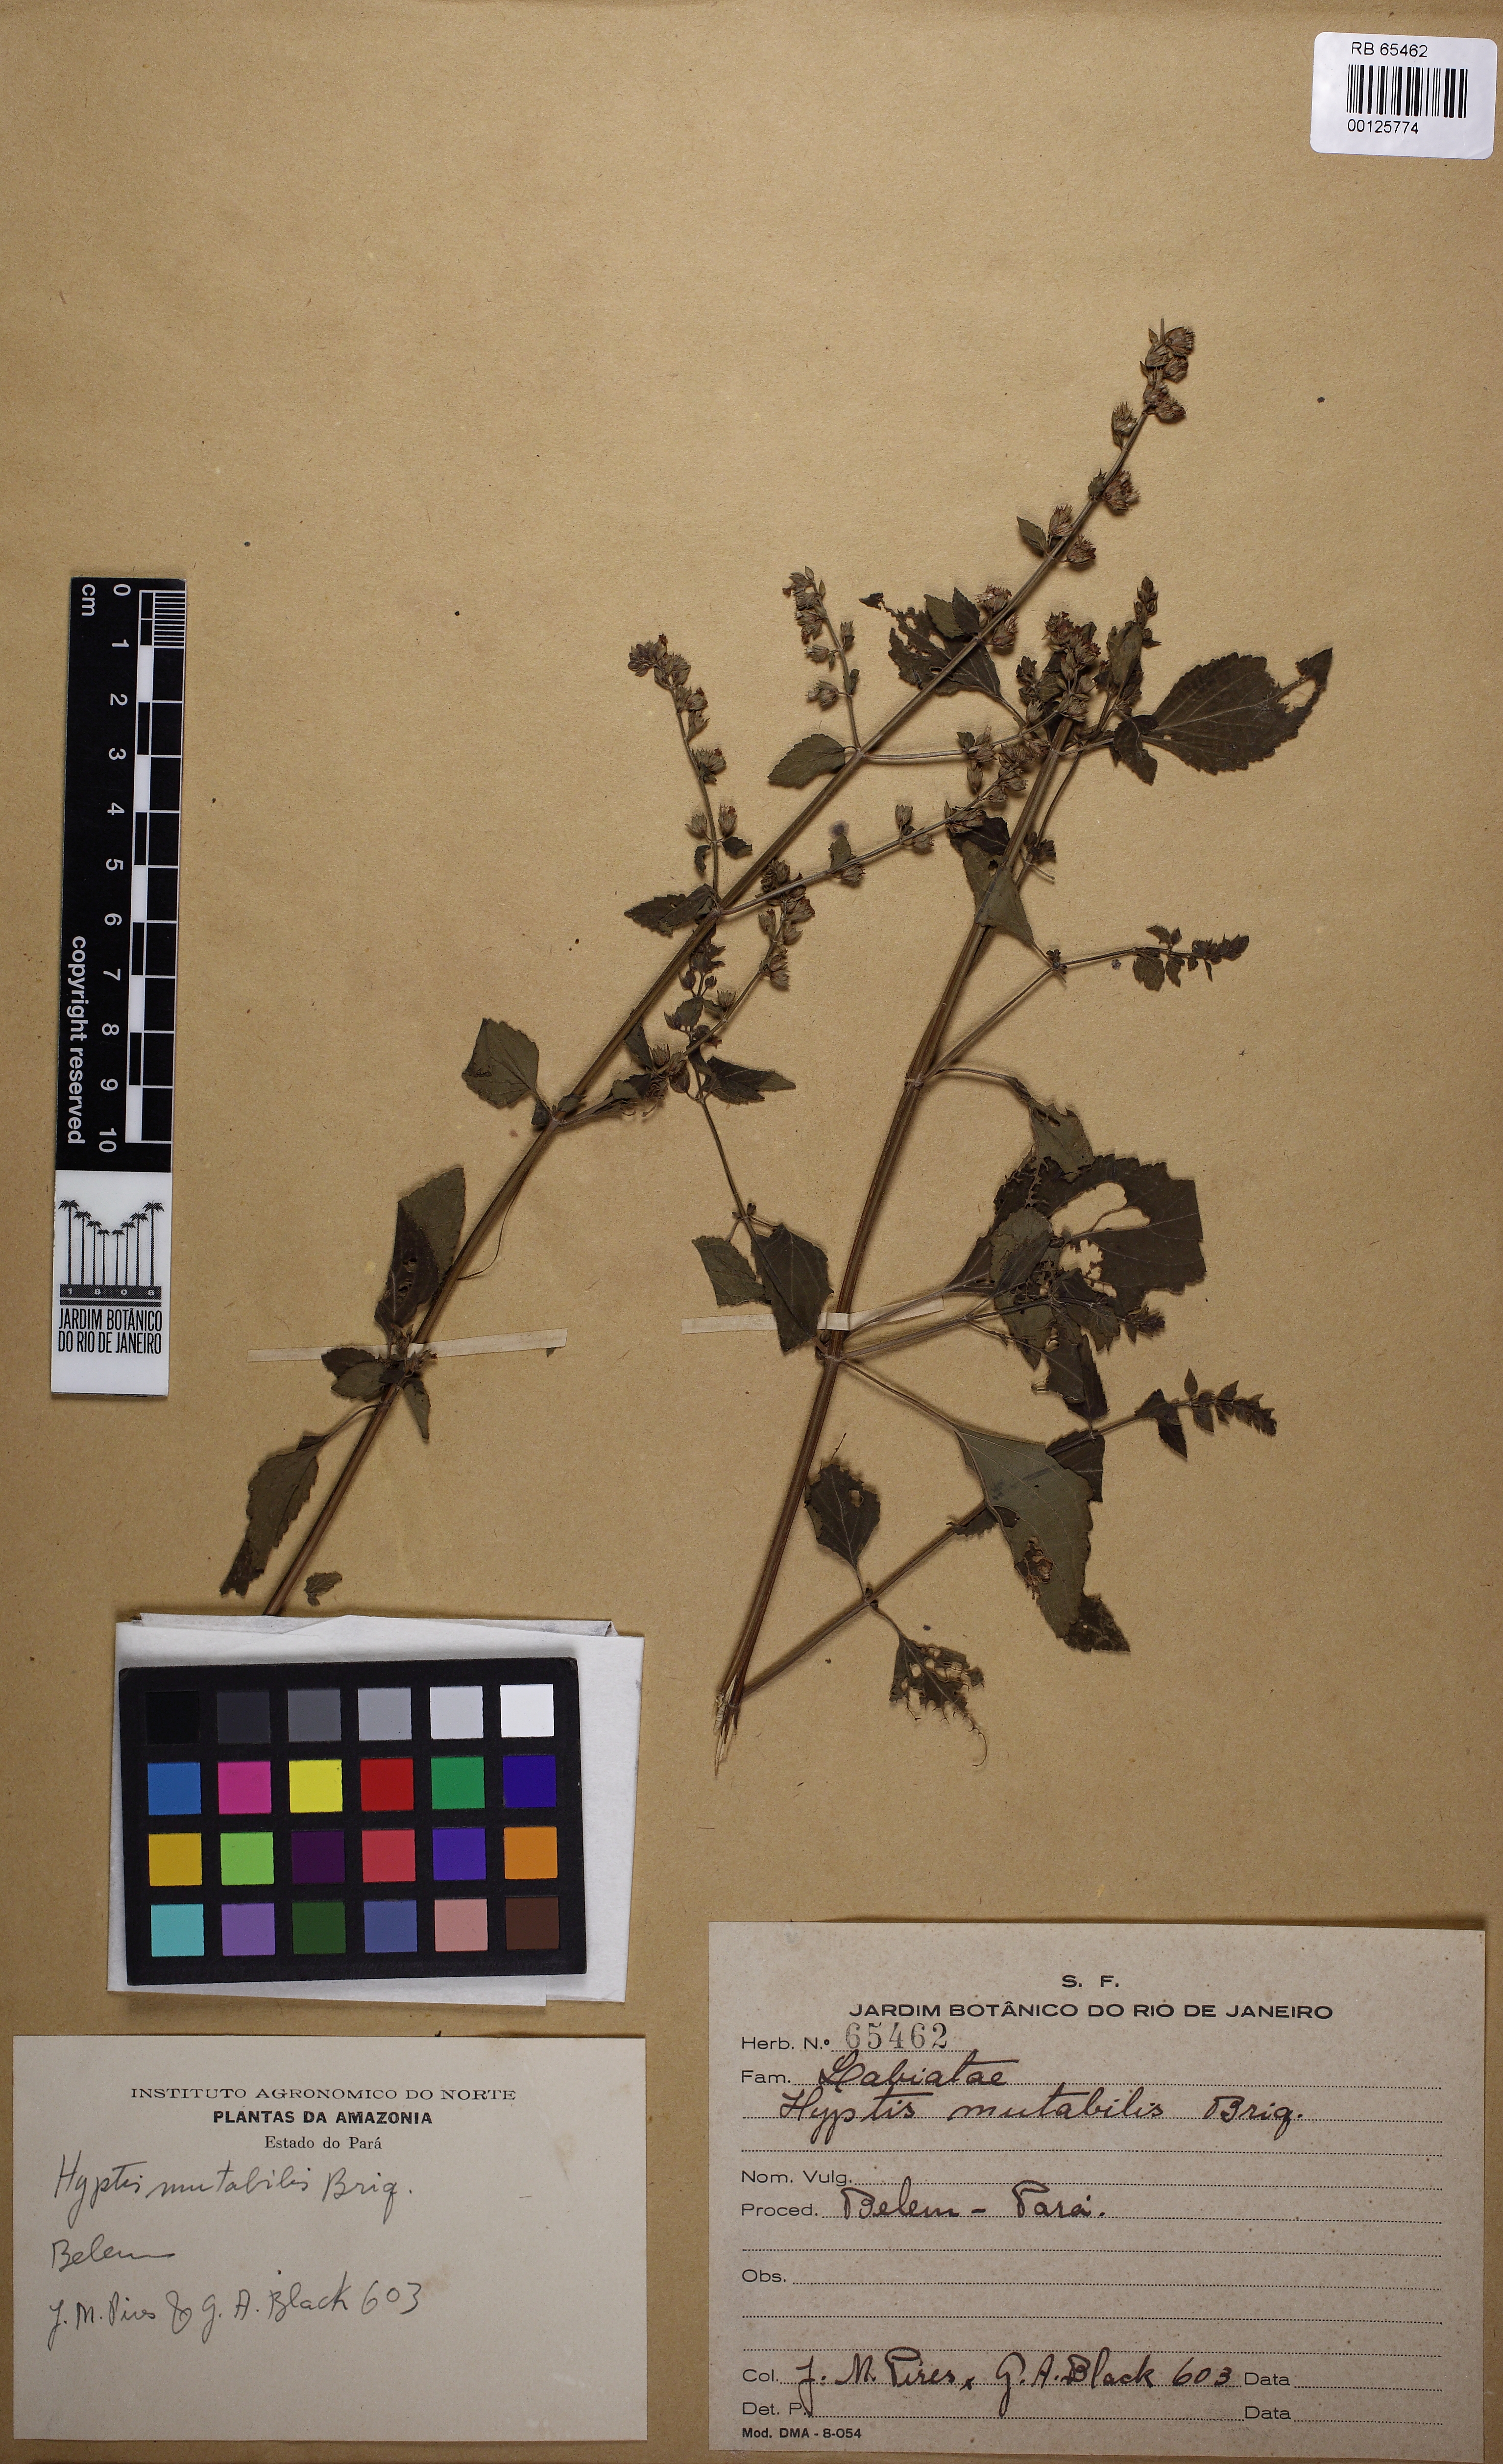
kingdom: Plantae
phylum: Tracheophyta
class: Magnoliopsida
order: Lamiales
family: Lamiaceae
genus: Cantinoa
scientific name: Cantinoa mutabilis
